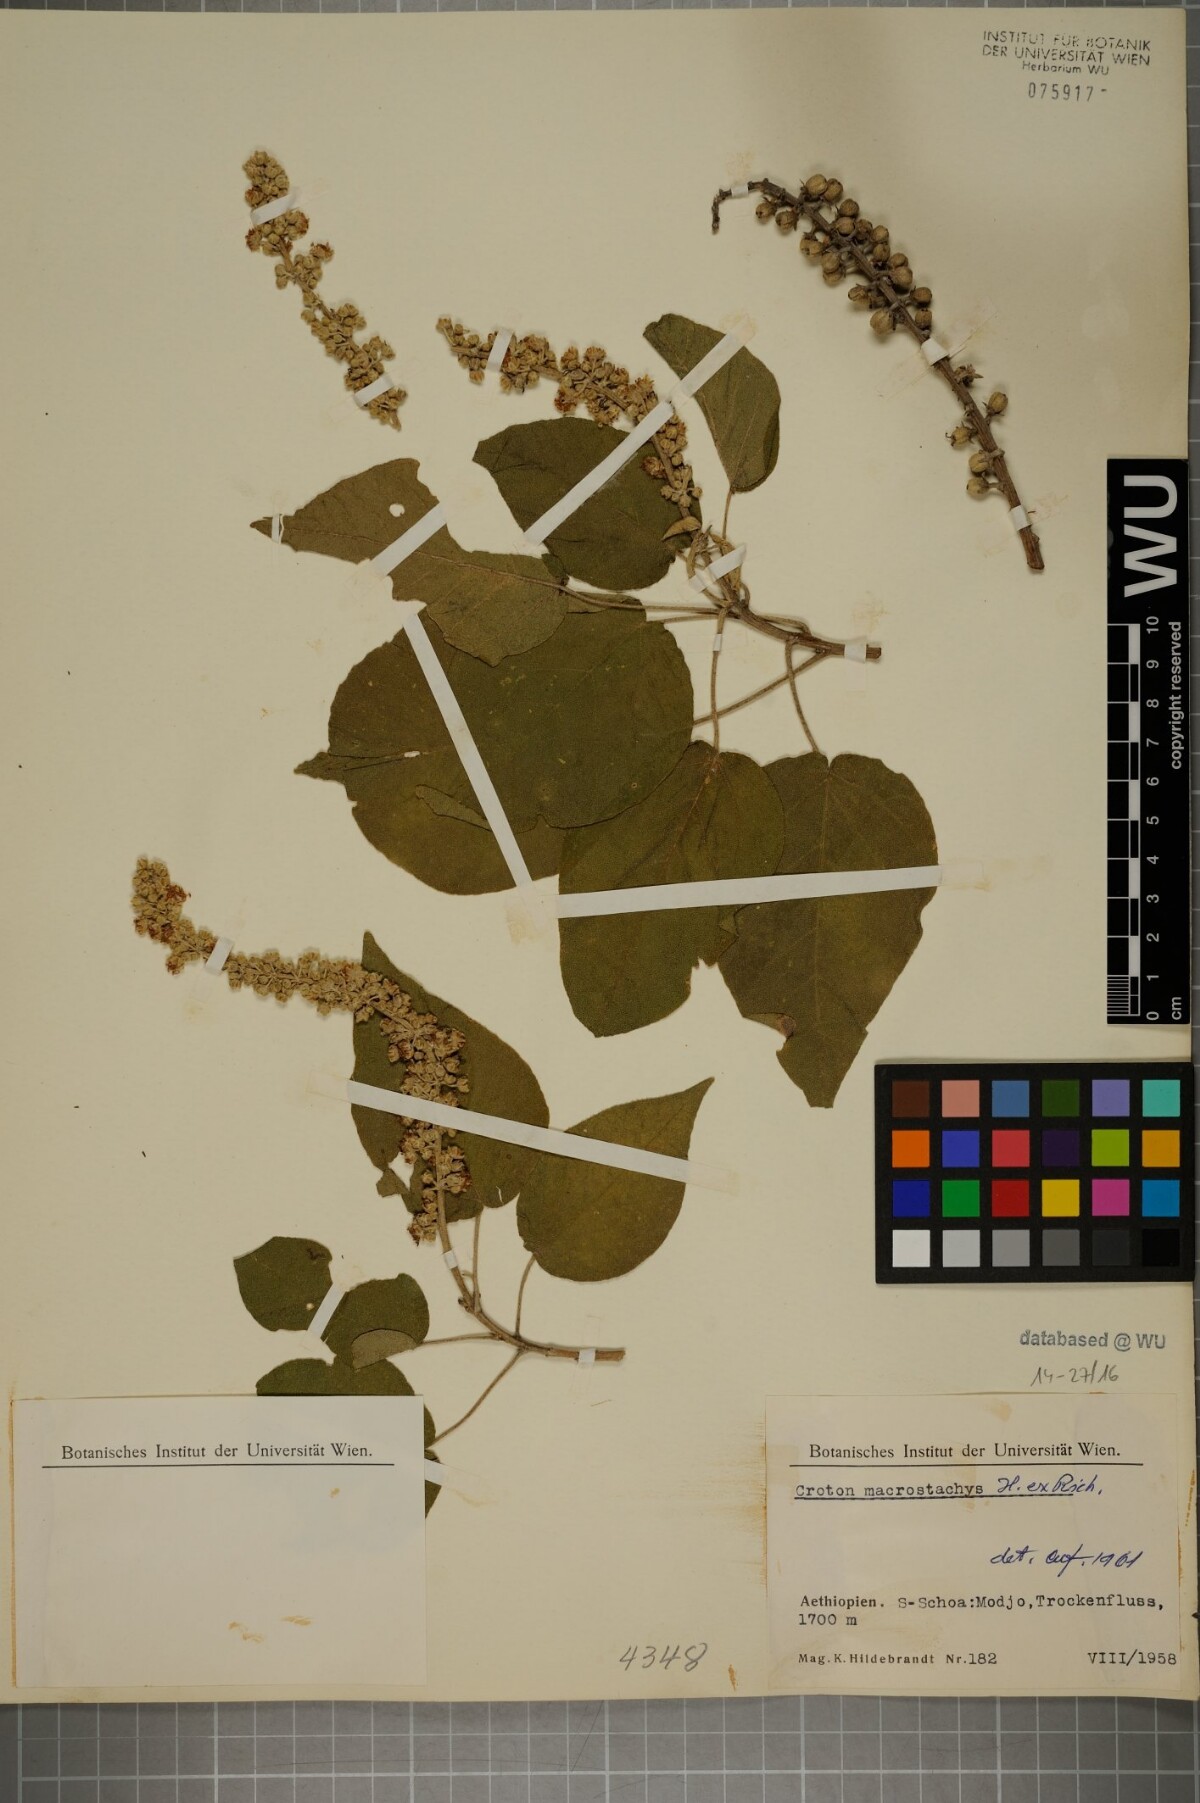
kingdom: Plantae
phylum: Tracheophyta
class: Magnoliopsida
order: Malpighiales
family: Euphorbiaceae
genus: Croton
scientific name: Croton macrostachys
